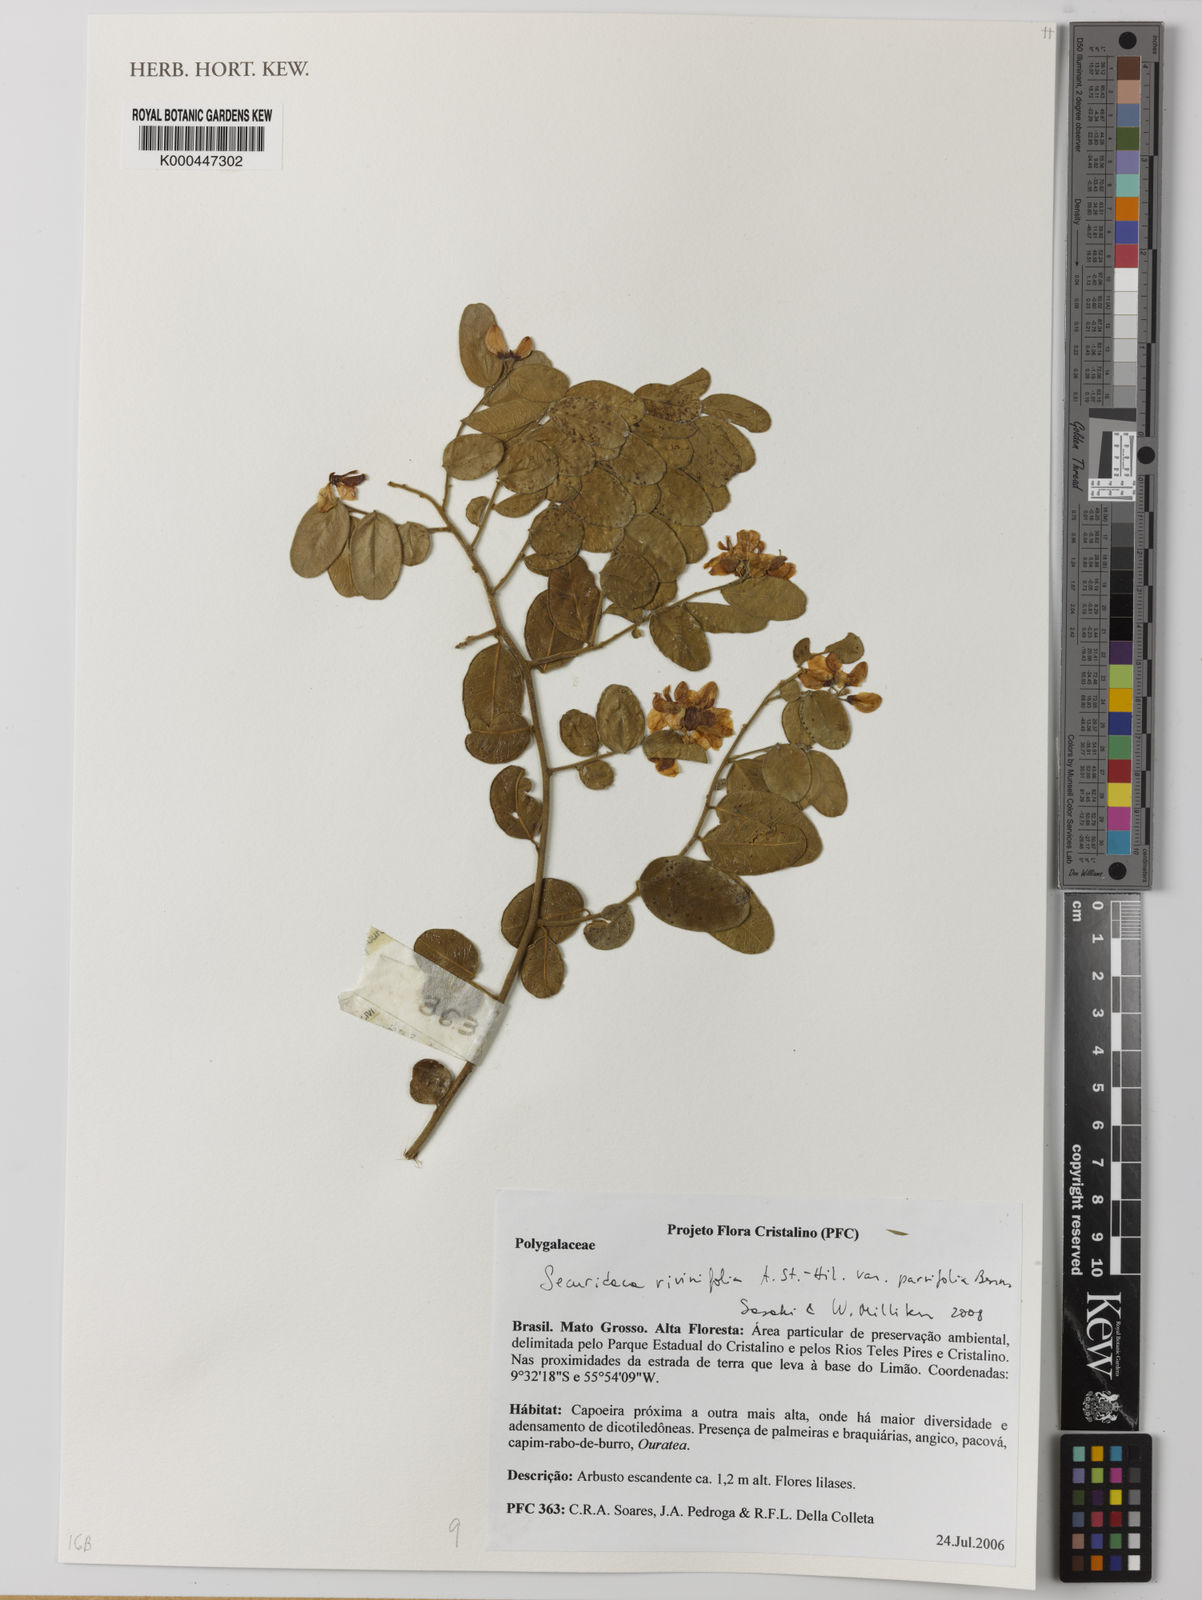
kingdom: Plantae
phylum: Tracheophyta
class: Magnoliopsida
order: Fabales
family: Polygalaceae
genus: Securidaca
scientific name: Securidaca rivinifolia
